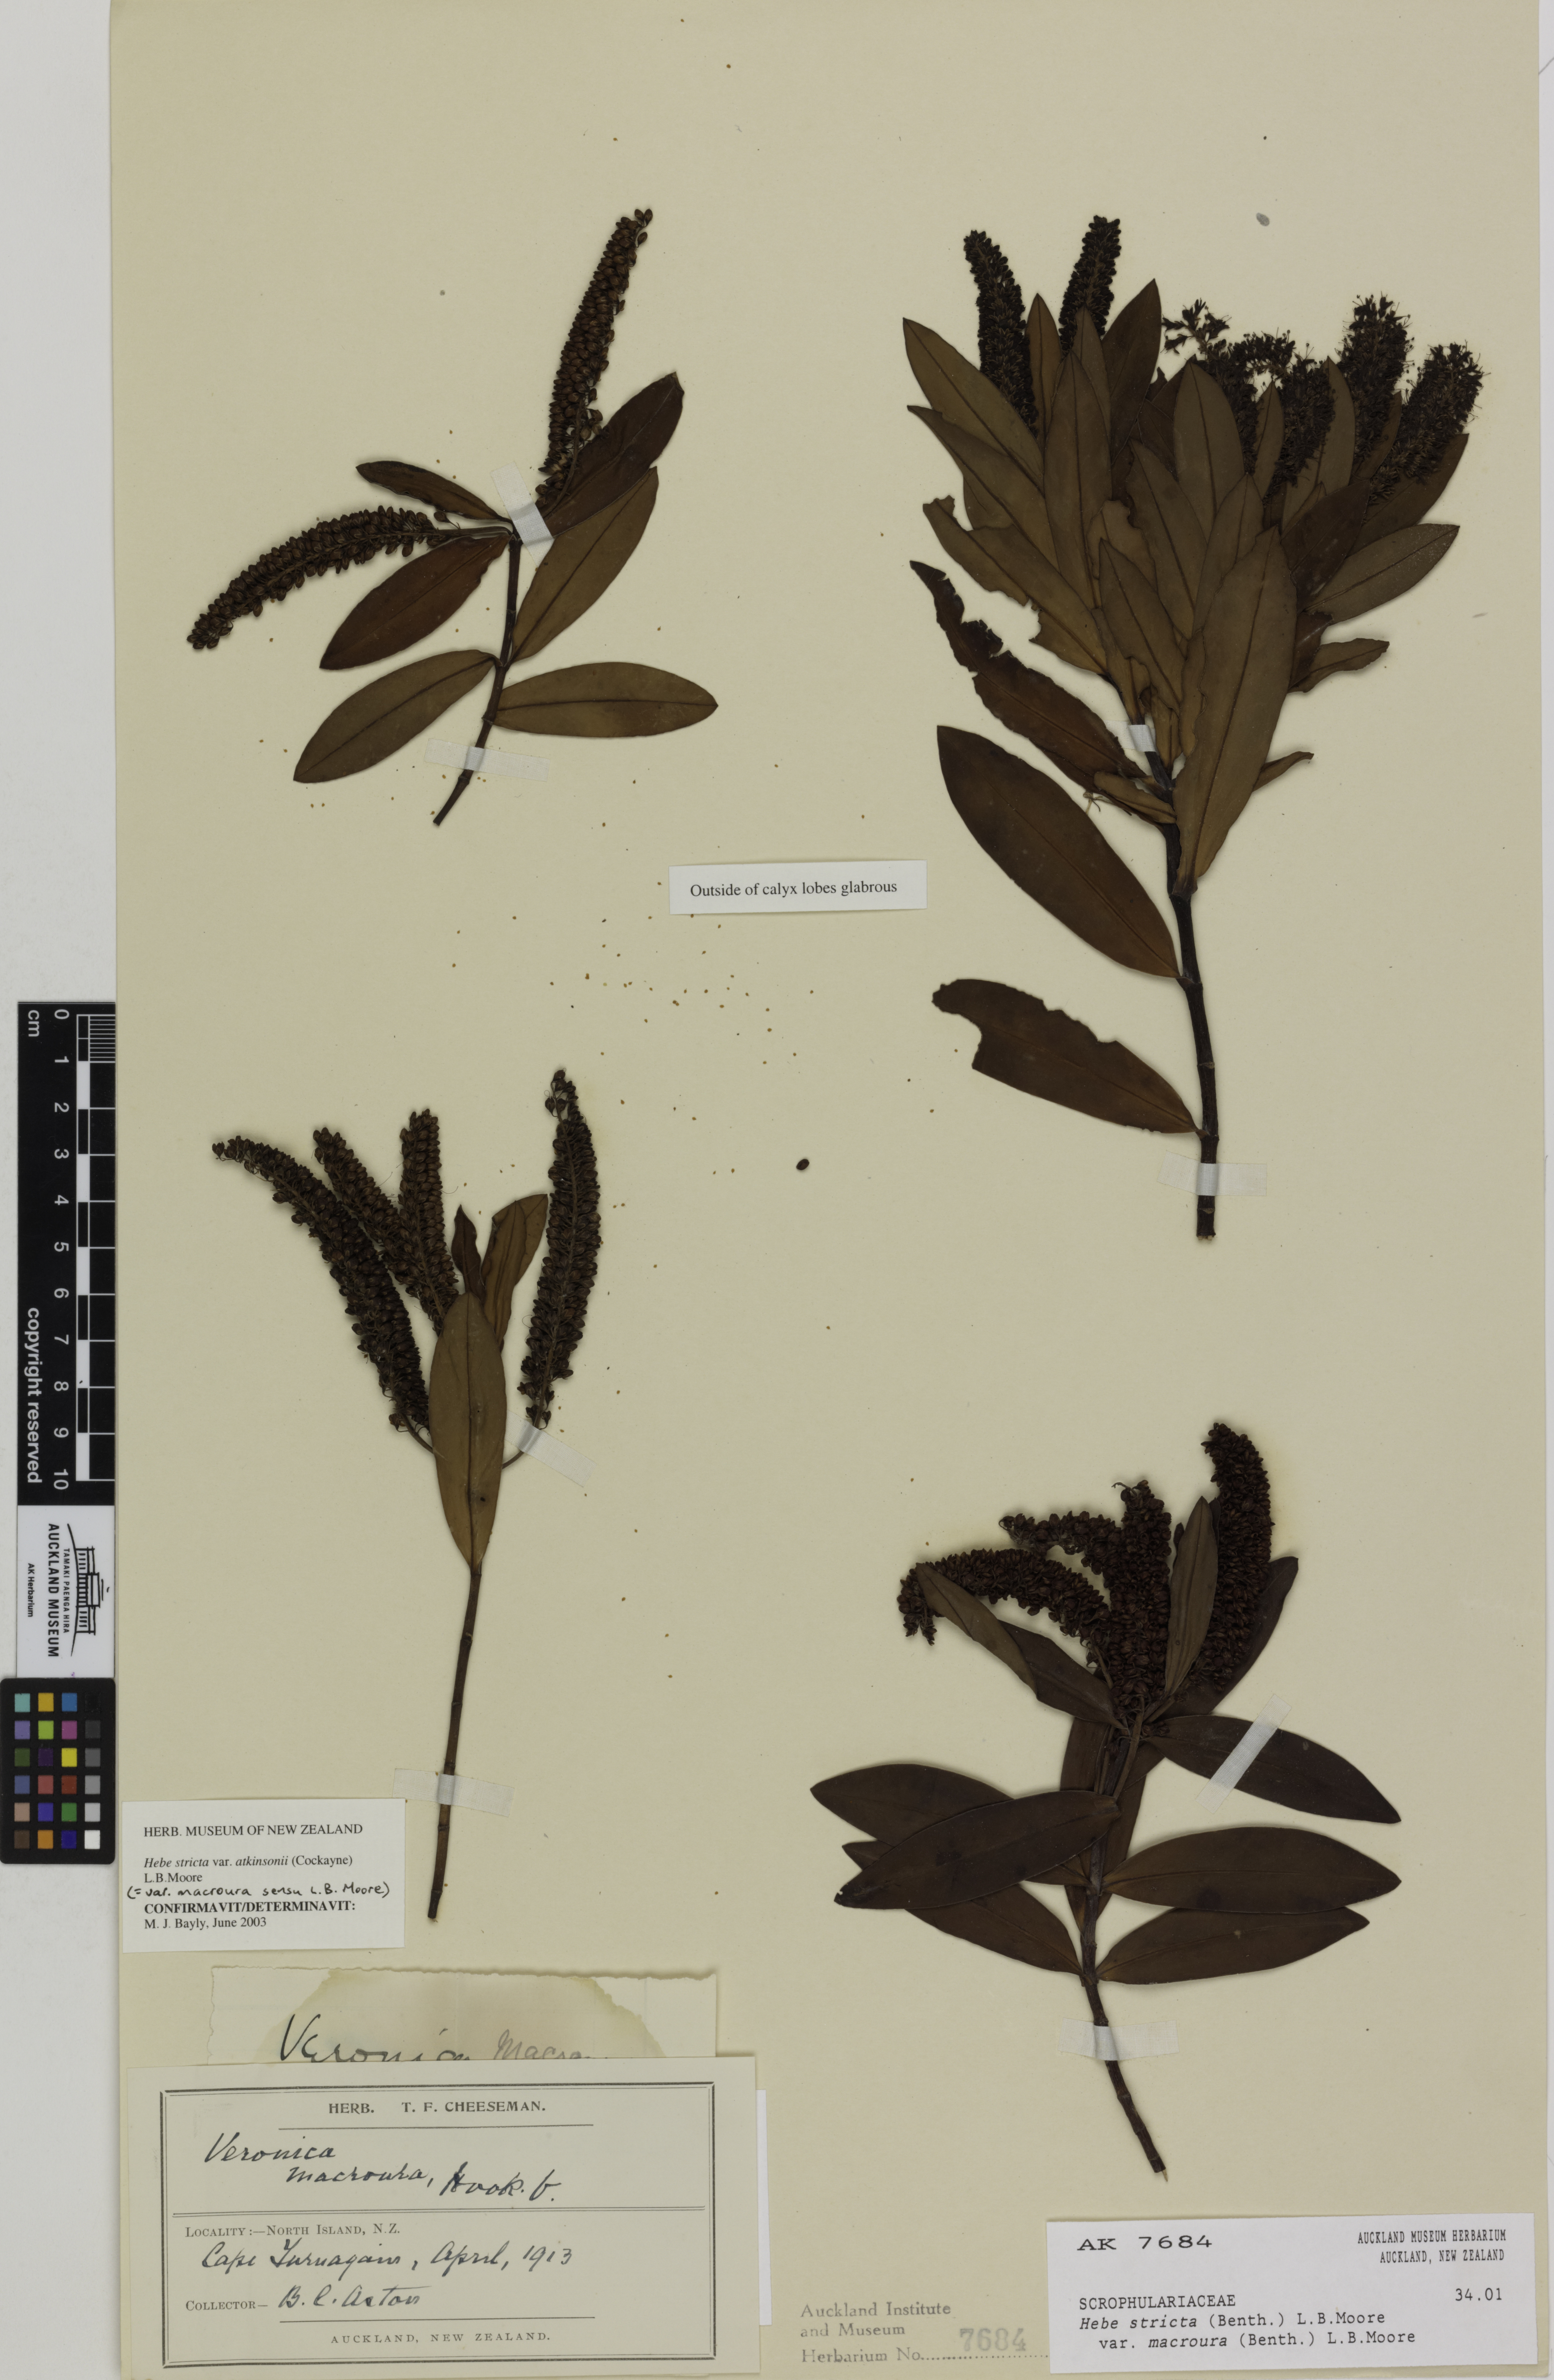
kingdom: Plantae
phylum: Tracheophyta
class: Magnoliopsida
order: Lamiales
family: Plantaginaceae
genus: Veronica
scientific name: Veronica stricta
